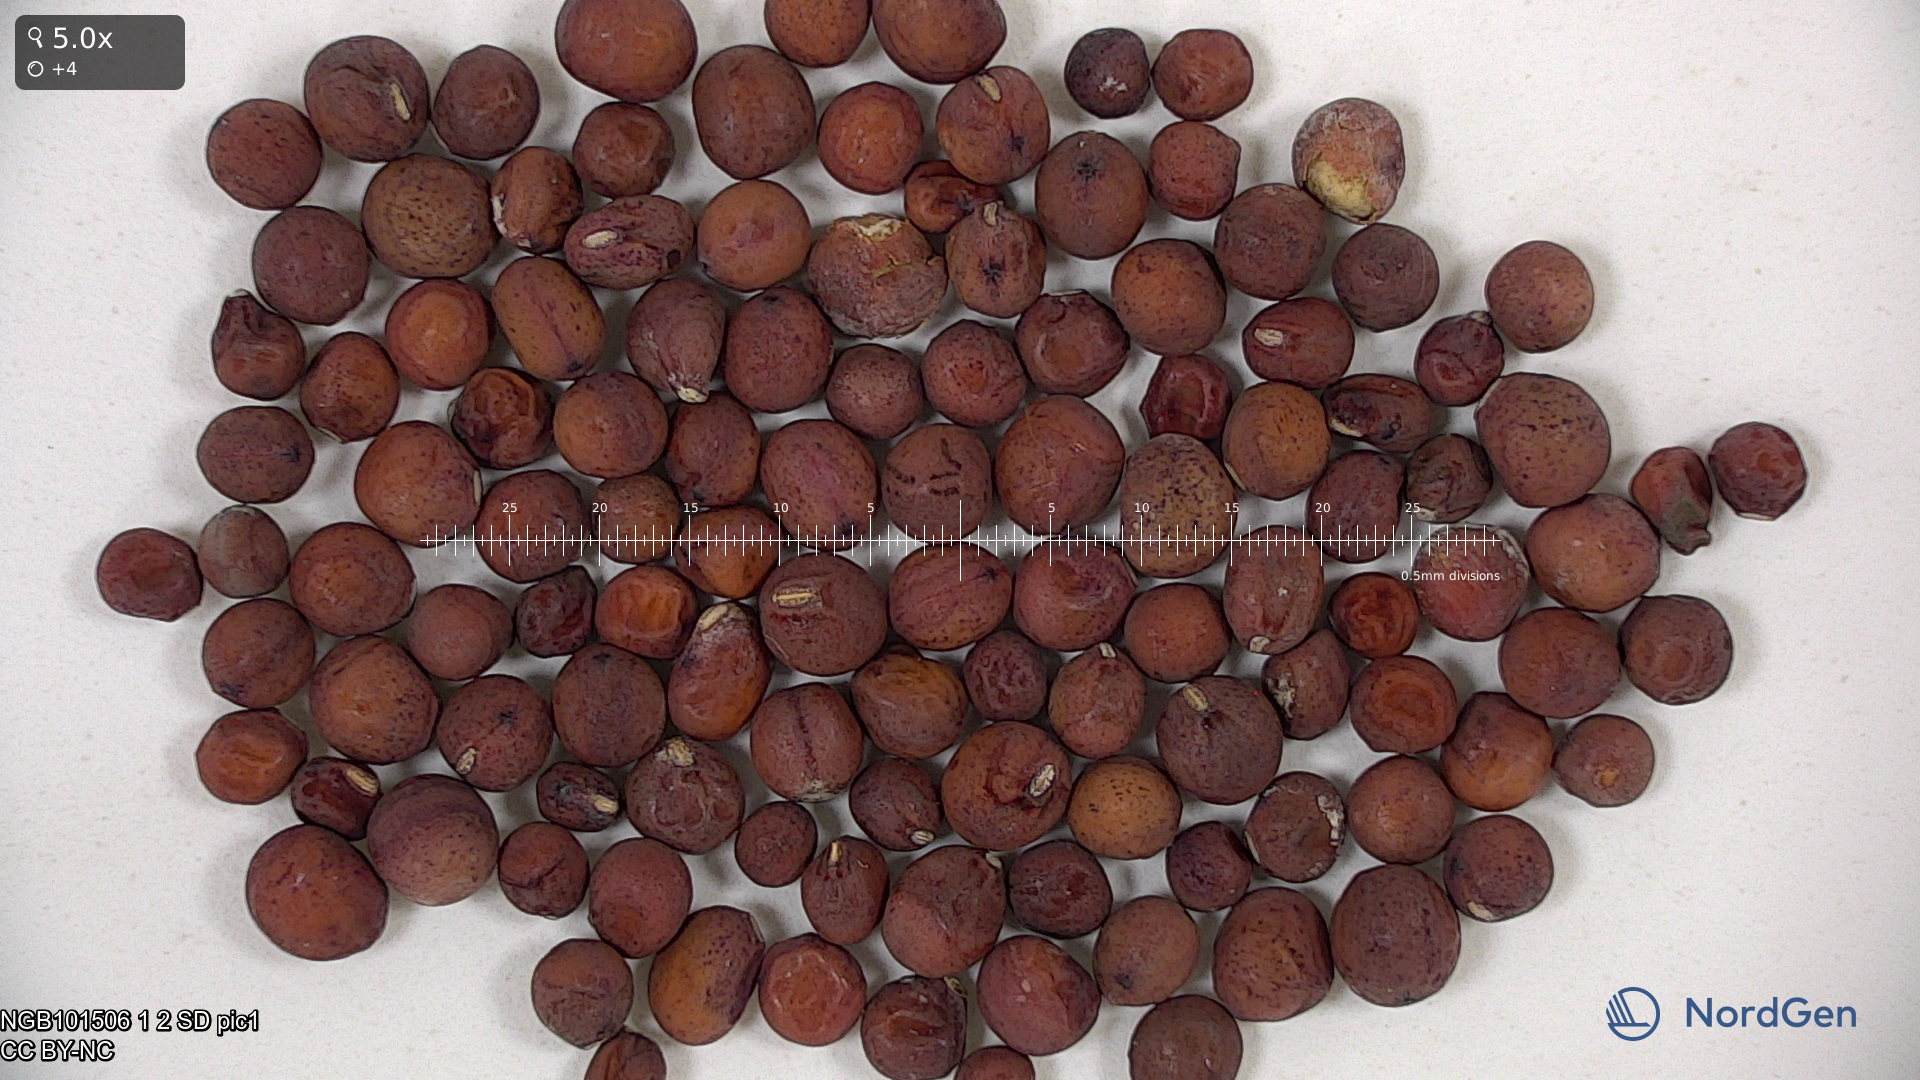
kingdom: Plantae
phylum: Tracheophyta
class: Magnoliopsida
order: Fabales
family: Fabaceae
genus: Lathyrus
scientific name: Lathyrus oleraceus
